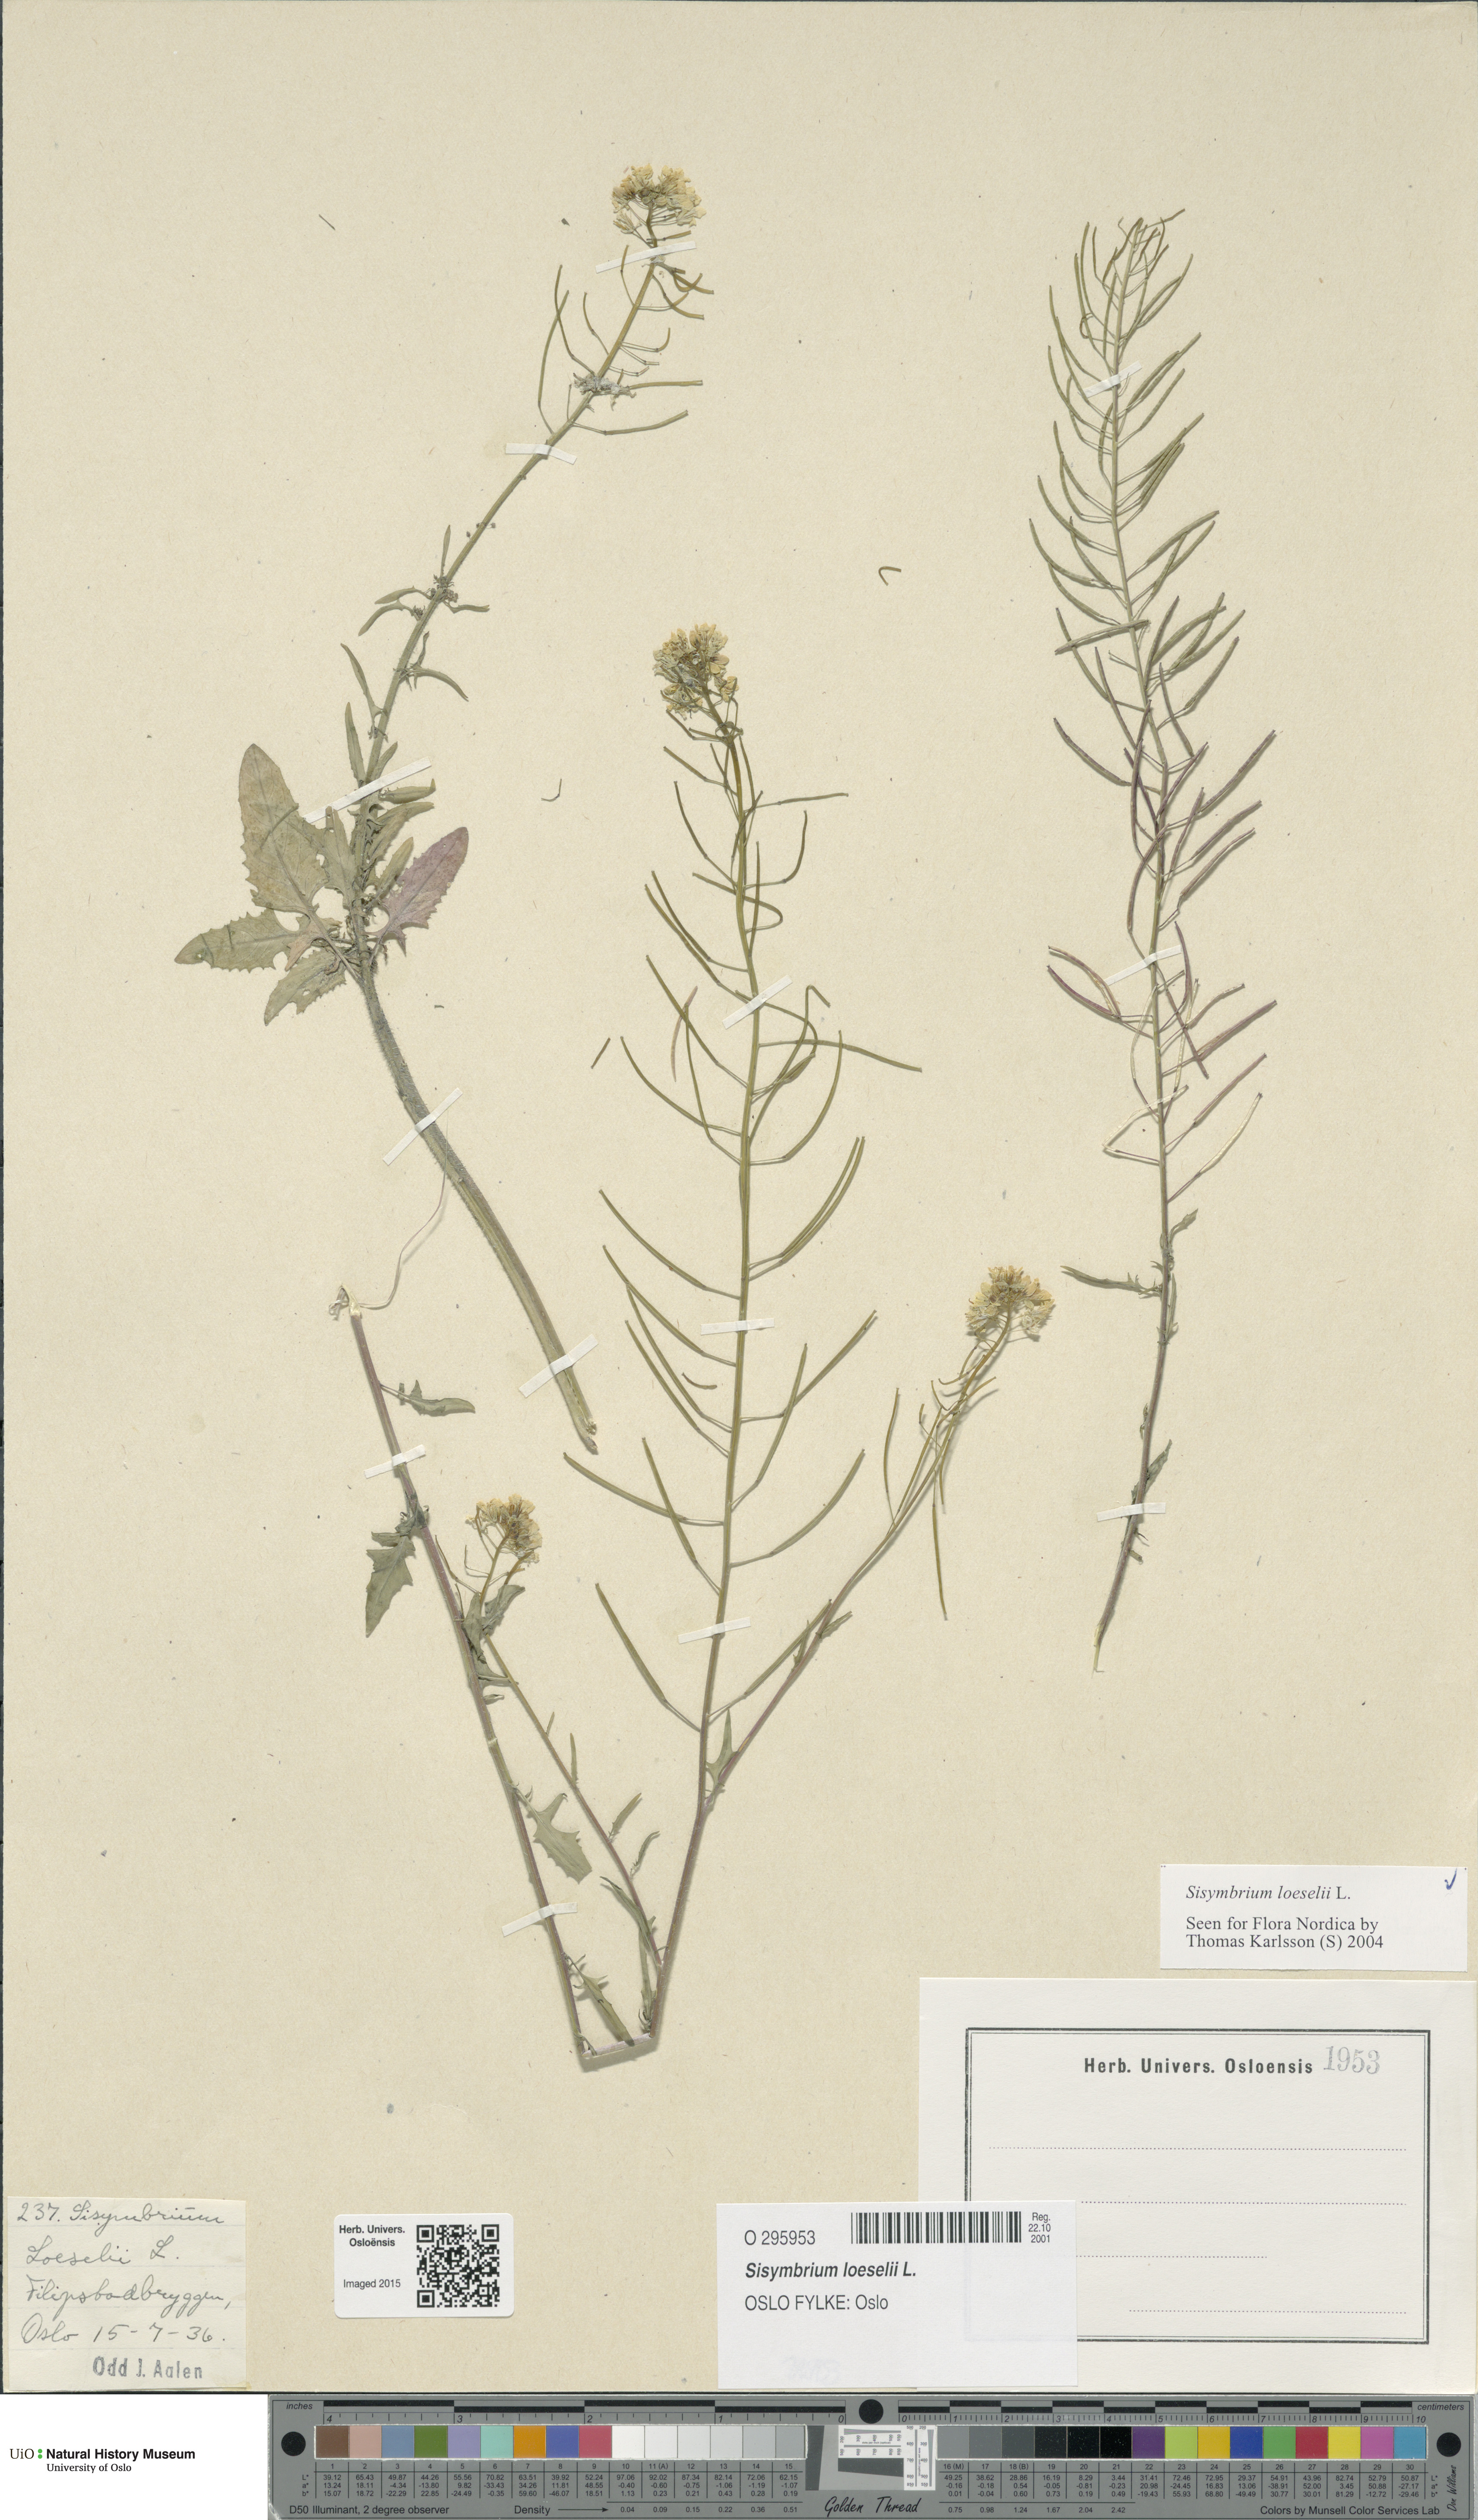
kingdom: Plantae
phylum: Tracheophyta
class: Magnoliopsida
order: Brassicales
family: Brassicaceae
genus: Sisymbrium
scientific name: Sisymbrium loeselii
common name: False london-rocket
